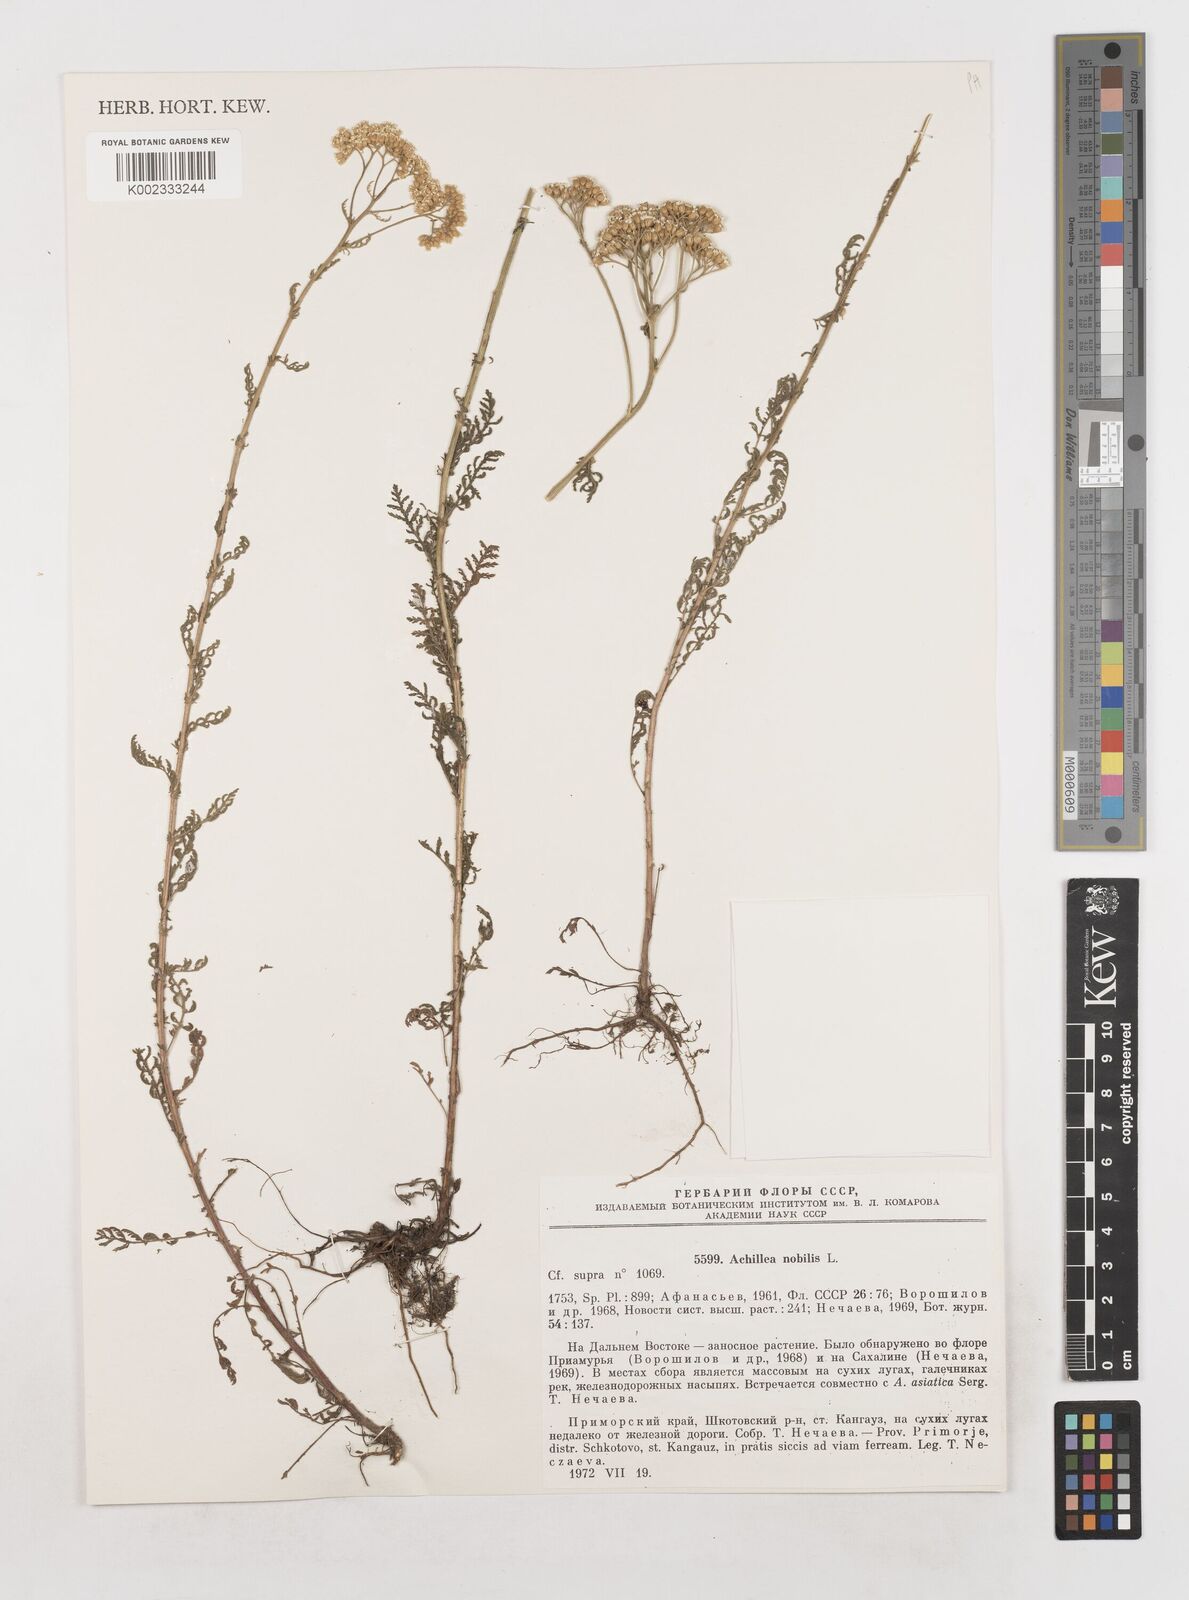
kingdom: Plantae
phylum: Tracheophyta
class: Magnoliopsida
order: Asterales
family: Asteraceae
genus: Achillea
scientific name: Achillea nobilis
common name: Noble yarrow
